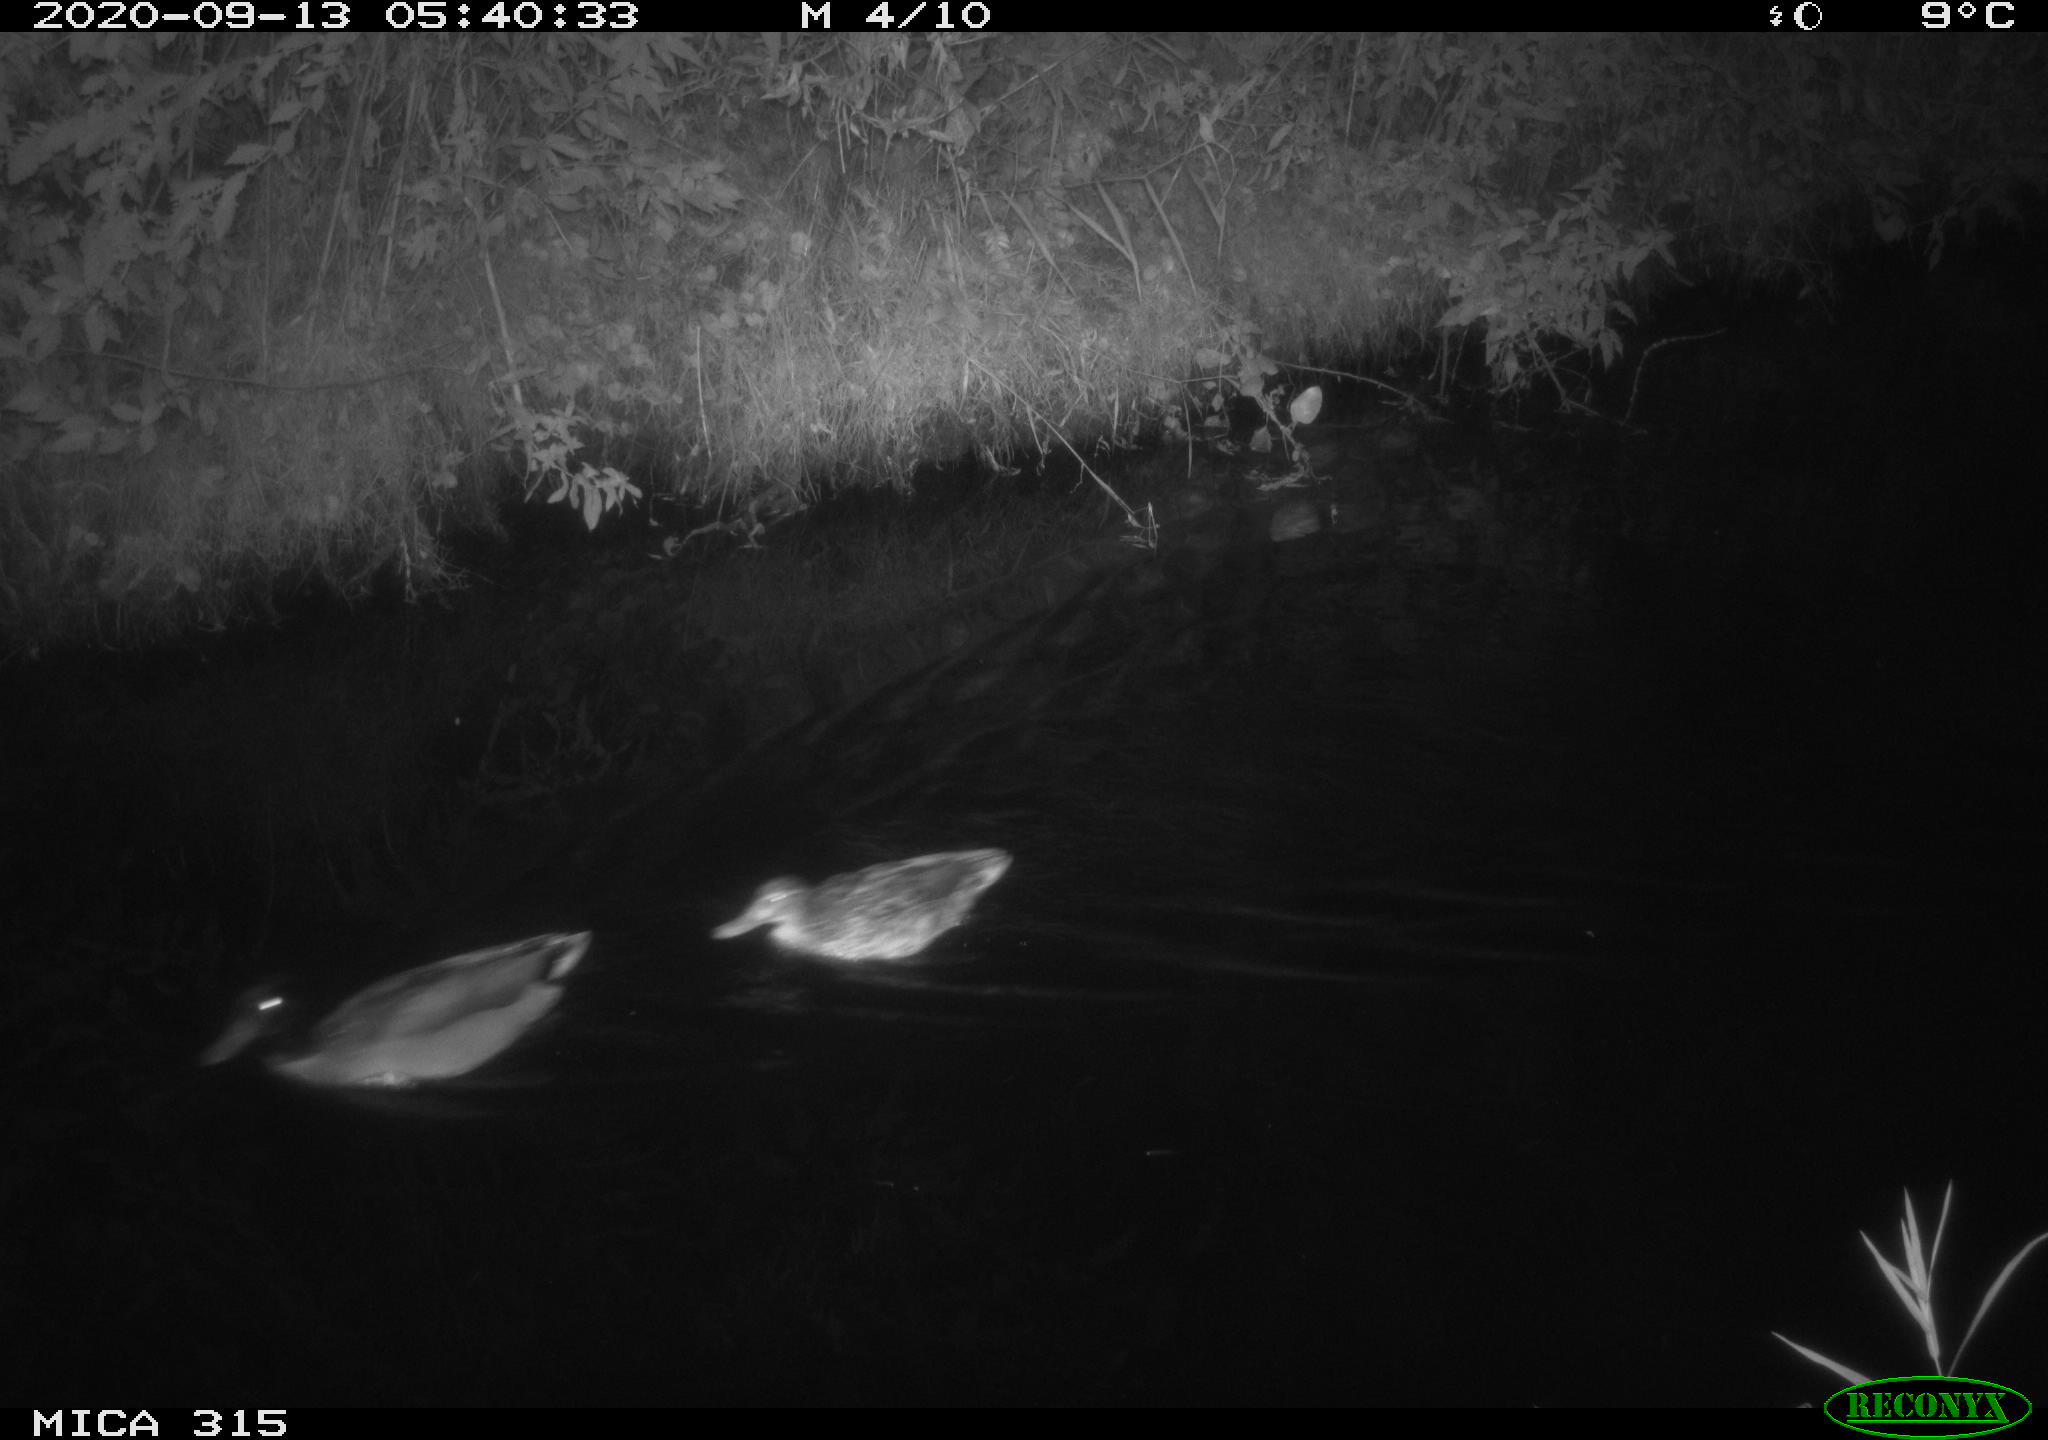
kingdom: Animalia
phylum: Chordata
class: Aves
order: Anseriformes
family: Anatidae
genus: Anas
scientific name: Anas platyrhynchos
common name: Mallard
